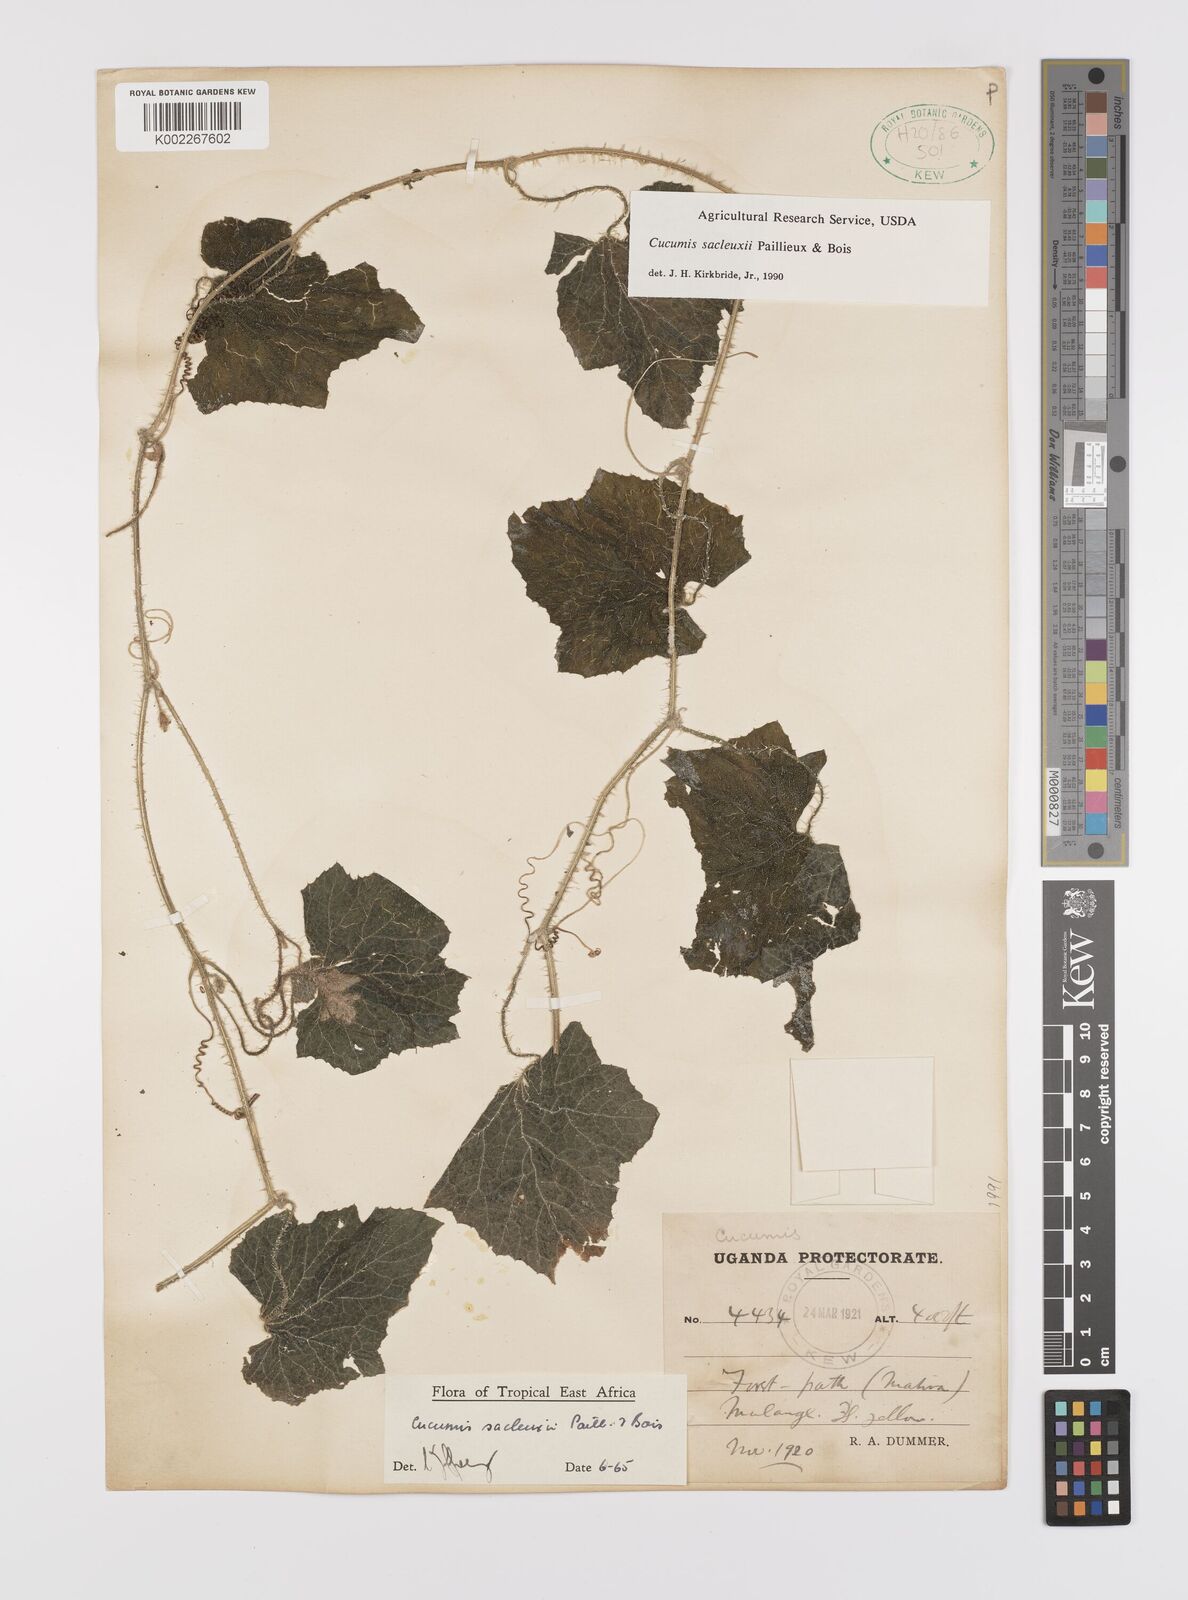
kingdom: Plantae
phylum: Tracheophyta
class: Magnoliopsida
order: Cucurbitales
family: Cucurbitaceae
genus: Cucumis
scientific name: Cucumis sacleuxii
